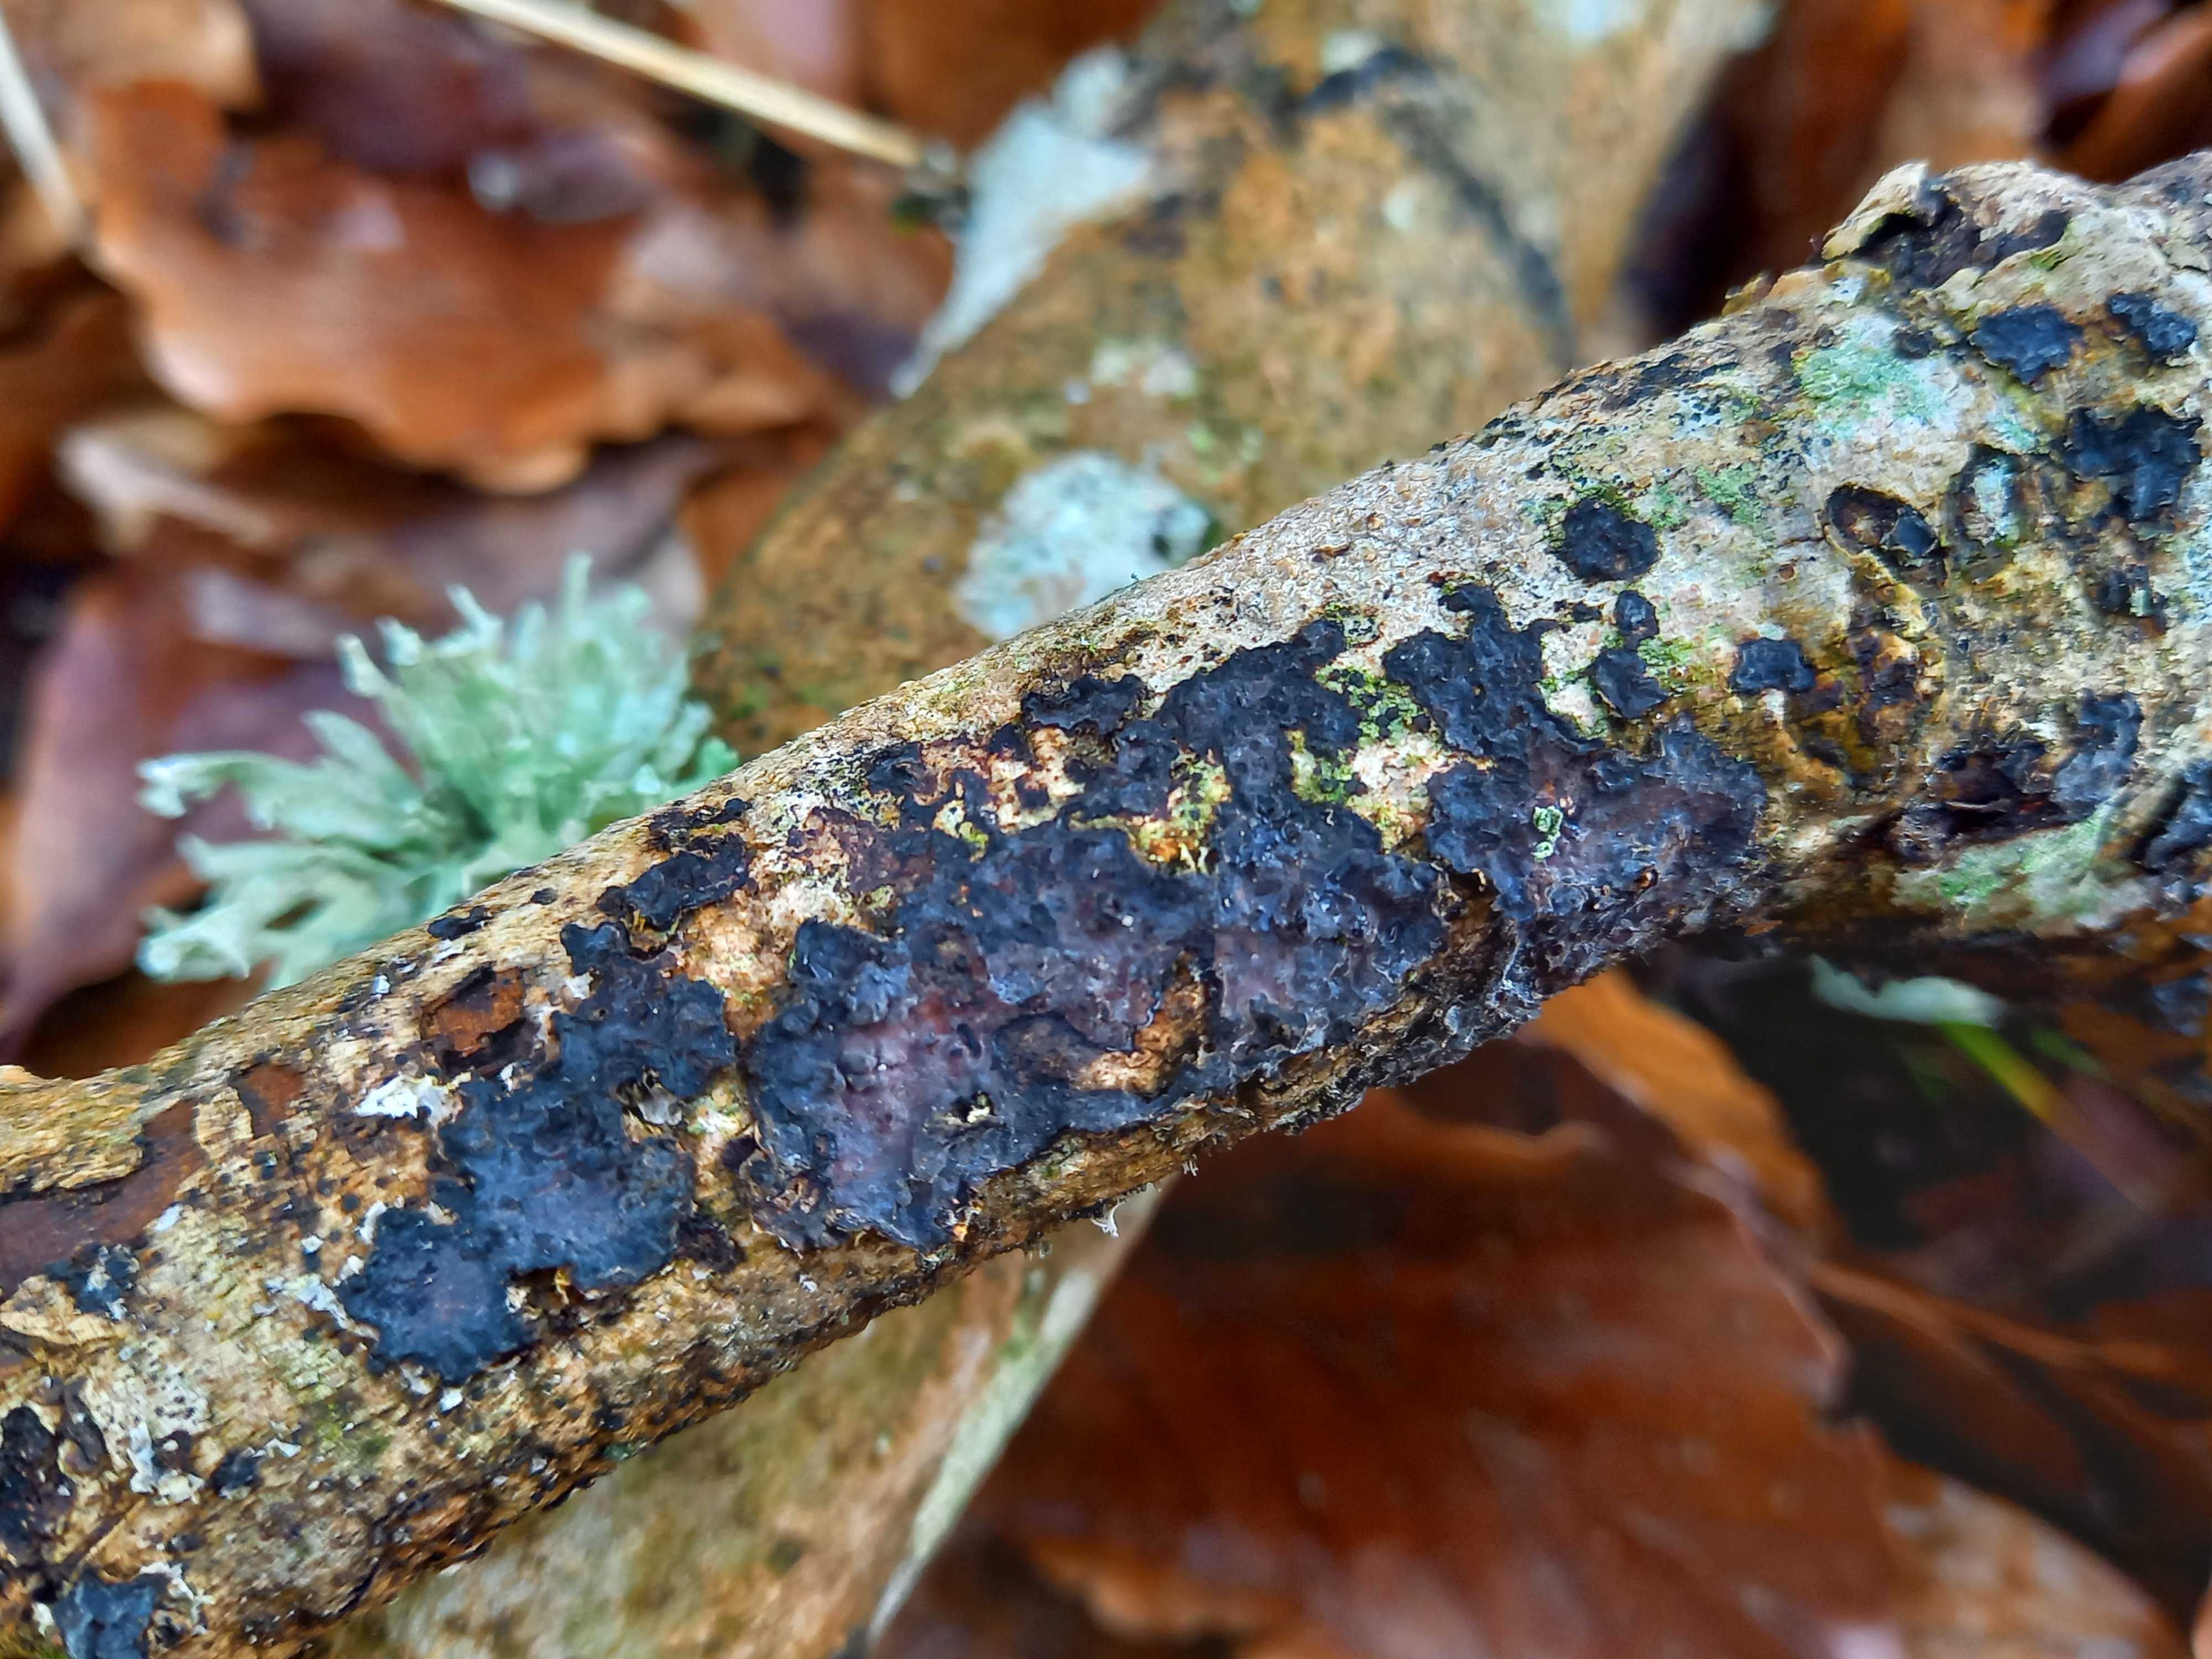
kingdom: Fungi
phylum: Basidiomycota
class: Agaricomycetes
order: Russulales
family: Peniophoraceae
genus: Peniophora
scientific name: Peniophora limitata
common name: mørkrandet voksskind
